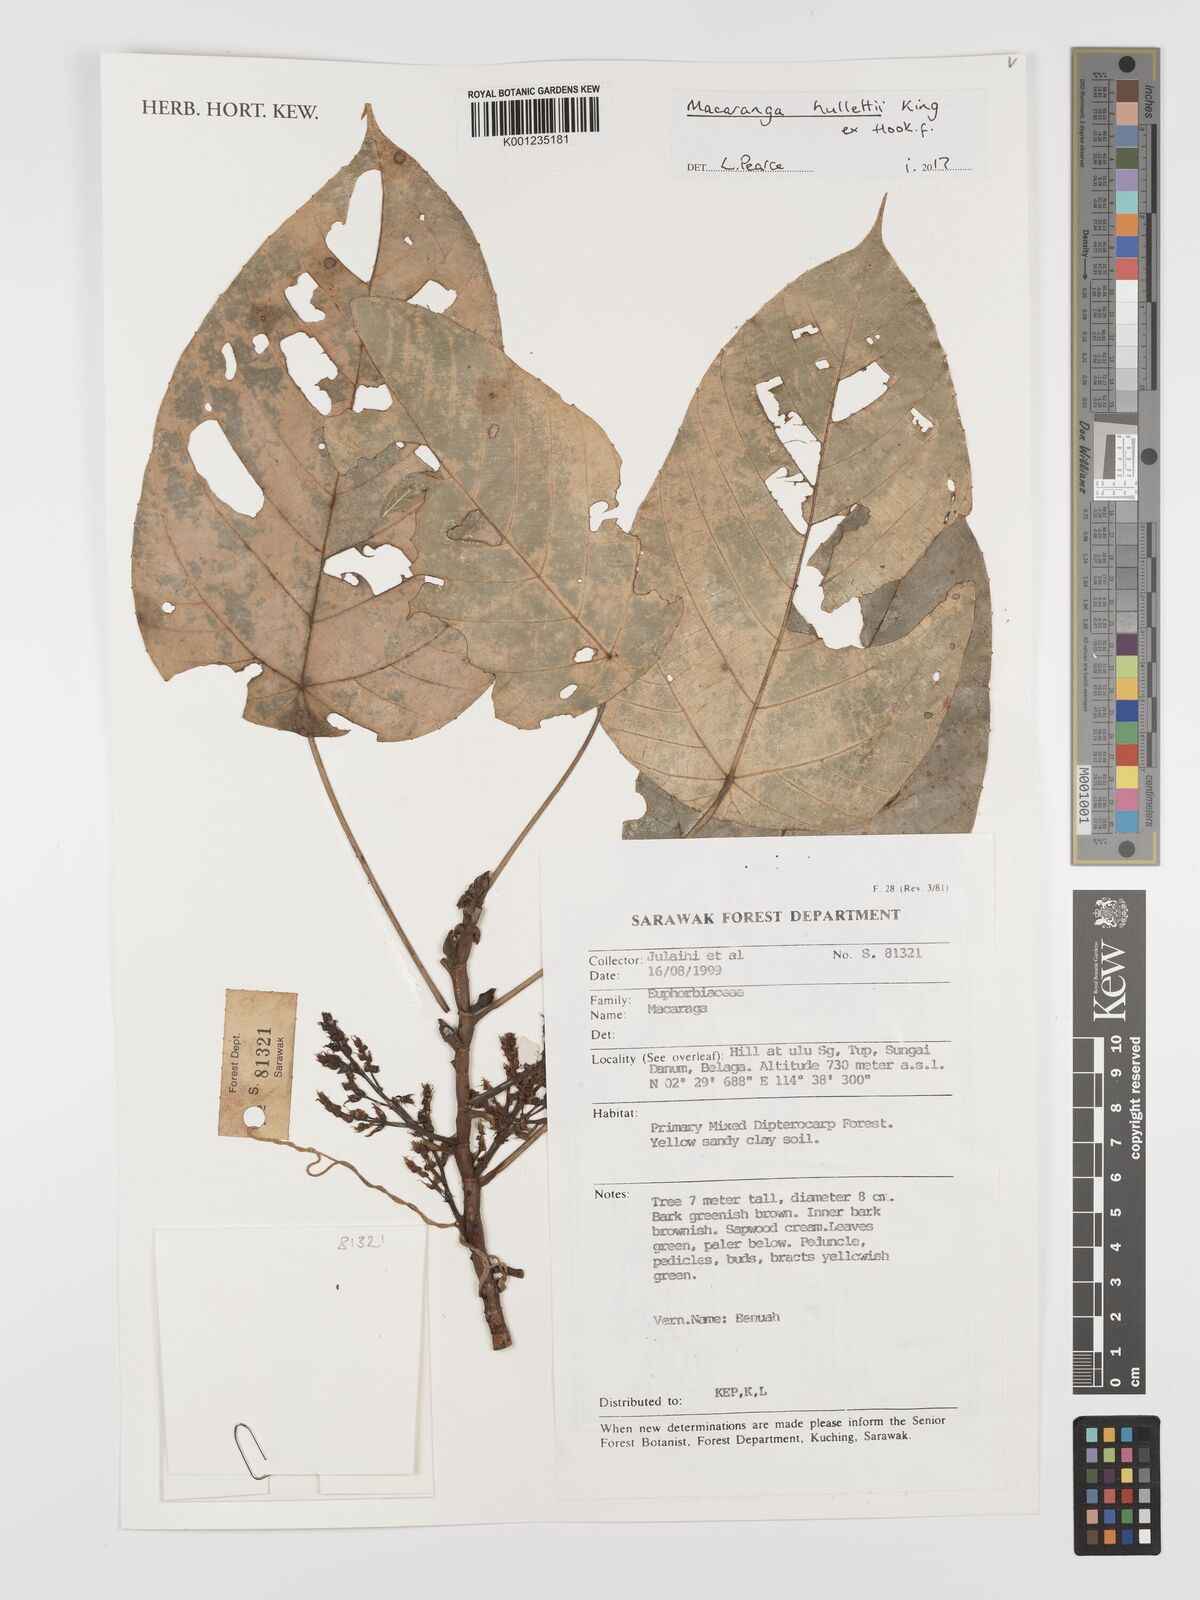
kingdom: Plantae
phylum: Tracheophyta
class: Magnoliopsida
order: Malpighiales
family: Euphorbiaceae
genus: Macaranga
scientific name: Macaranga hullettii
